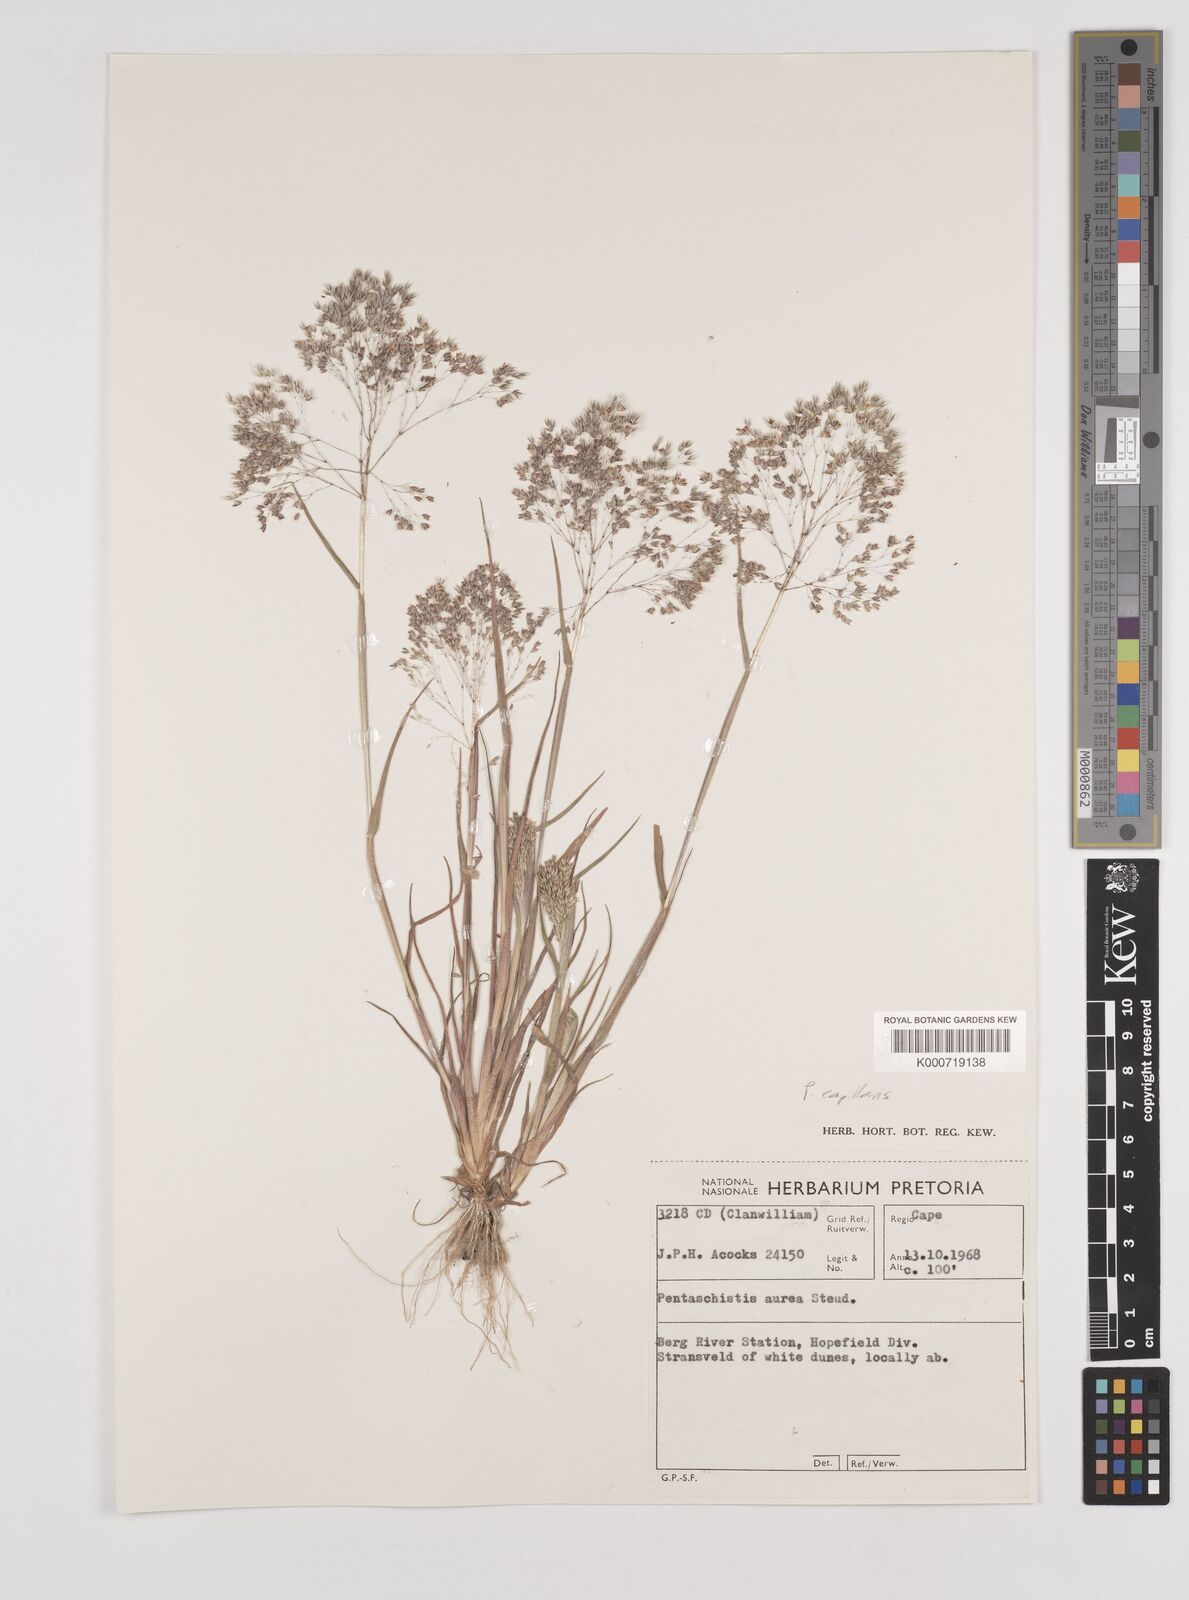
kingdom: Plantae
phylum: Tracheophyta
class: Liliopsida
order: Poales
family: Poaceae
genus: Pentameris
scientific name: Pentameris capillaris
